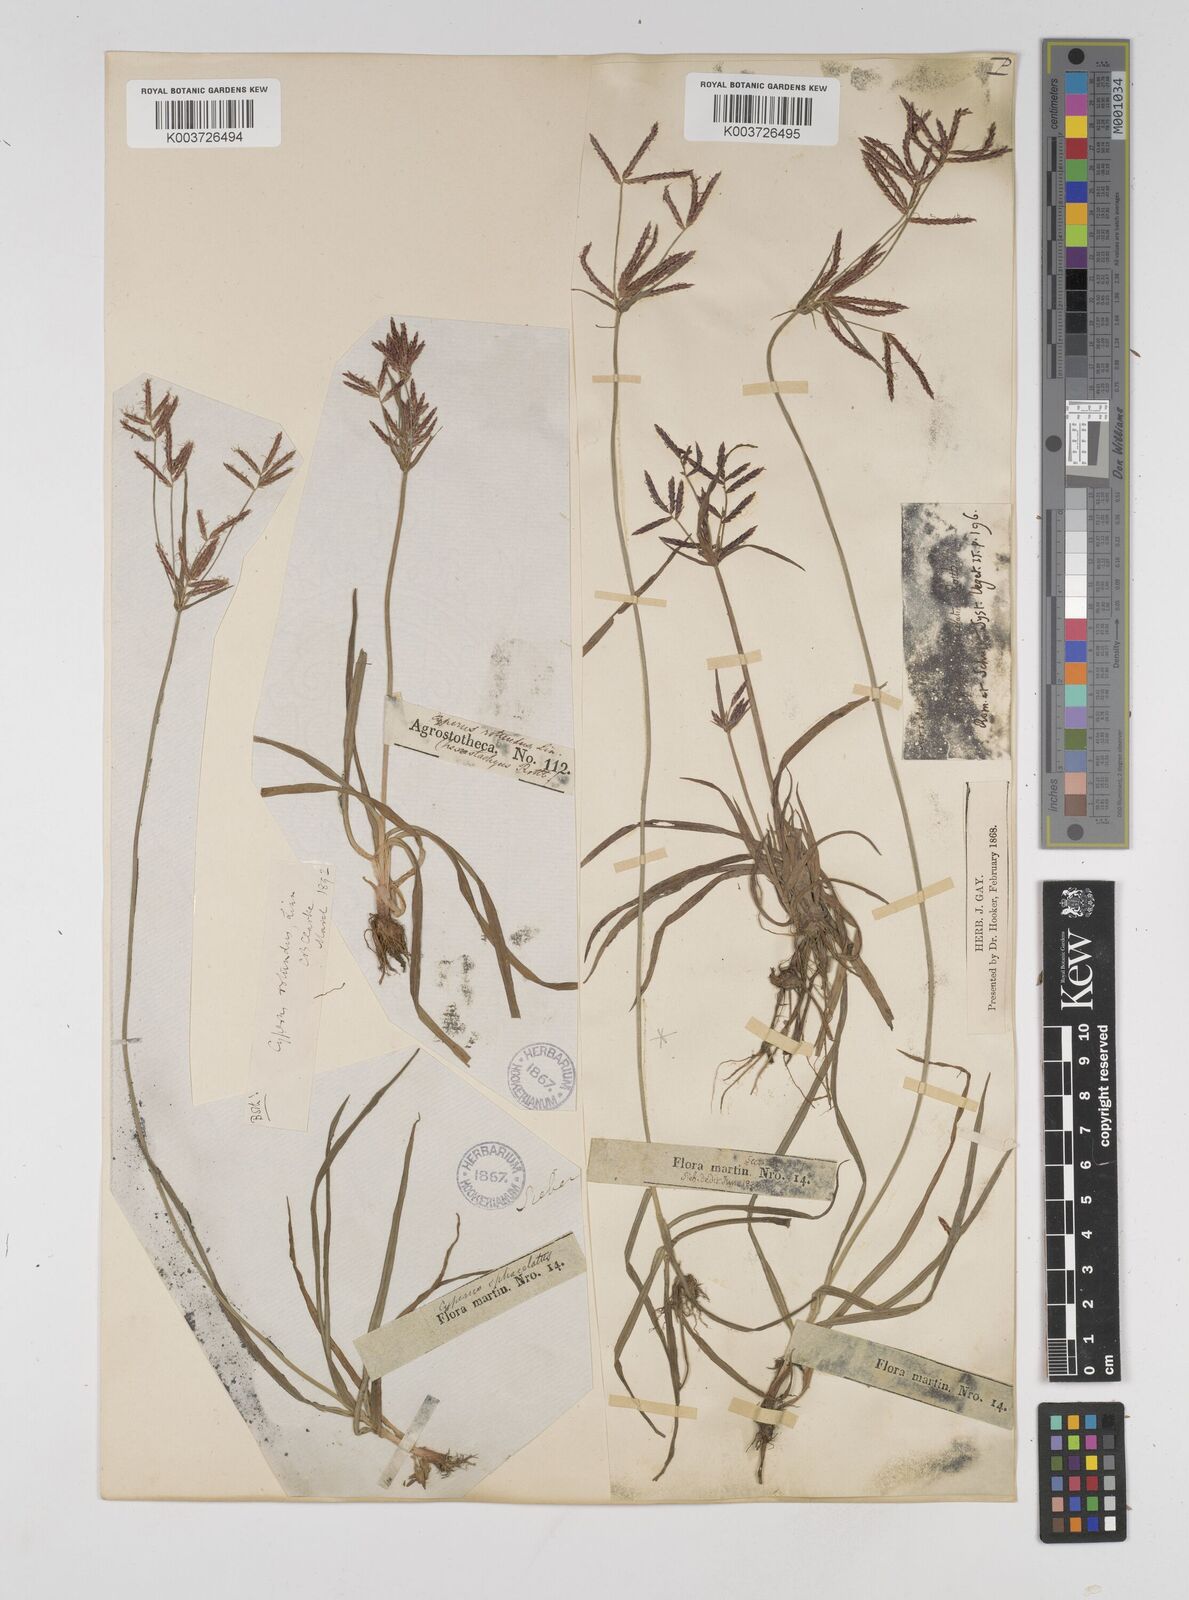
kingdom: Plantae
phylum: Tracheophyta
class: Liliopsida
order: Poales
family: Cyperaceae
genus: Cyperus
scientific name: Cyperus rotundus
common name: Nutgrass
